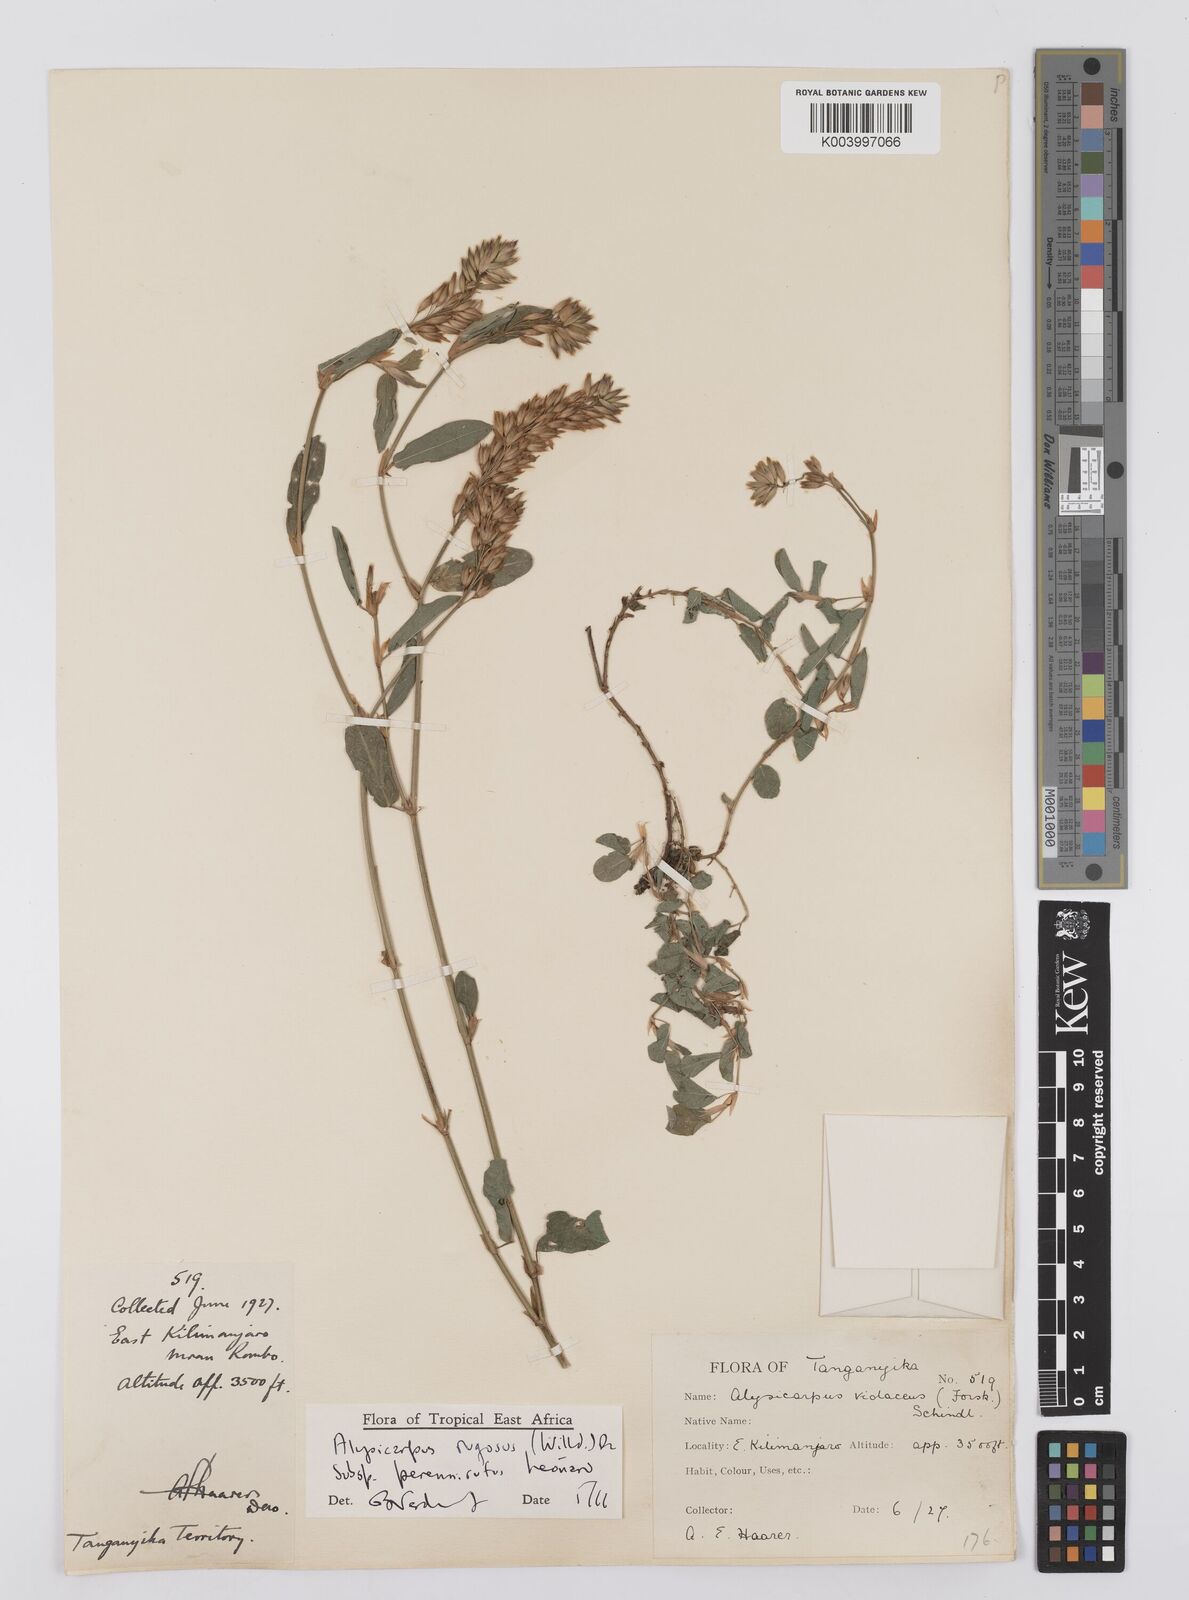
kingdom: Plantae
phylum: Tracheophyta
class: Magnoliopsida
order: Fabales
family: Fabaceae
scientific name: Fabaceae
